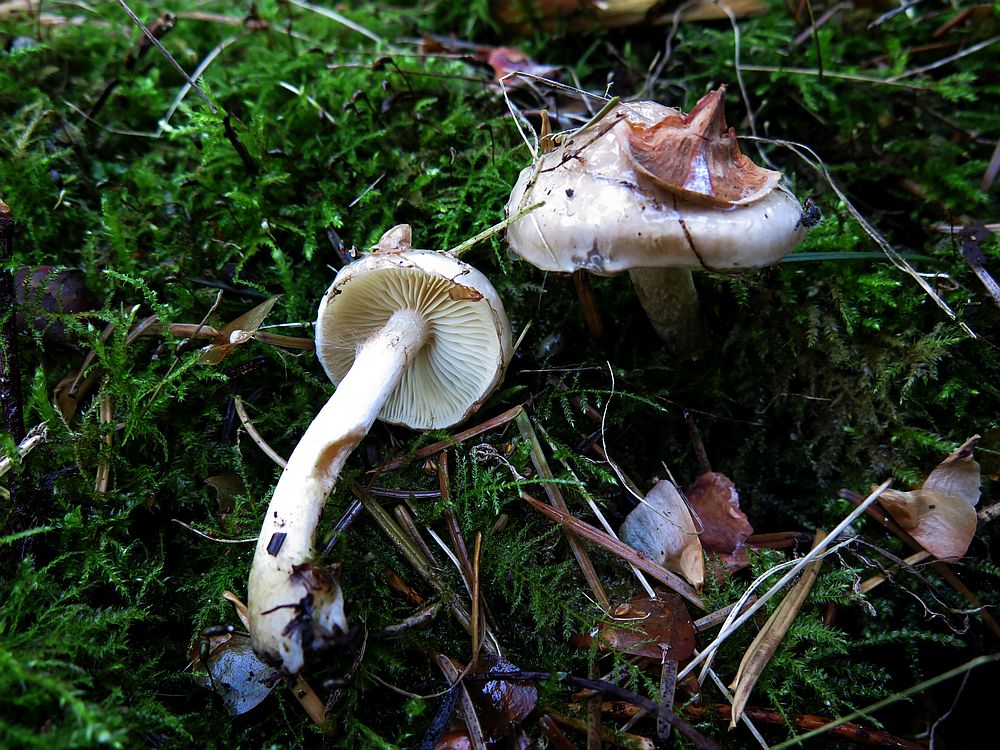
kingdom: Fungi
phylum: Basidiomycota
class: Agaricomycetes
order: Agaricales
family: Strophariaceae
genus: Pholiota
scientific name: Pholiota lenta
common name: løv-skælhat
